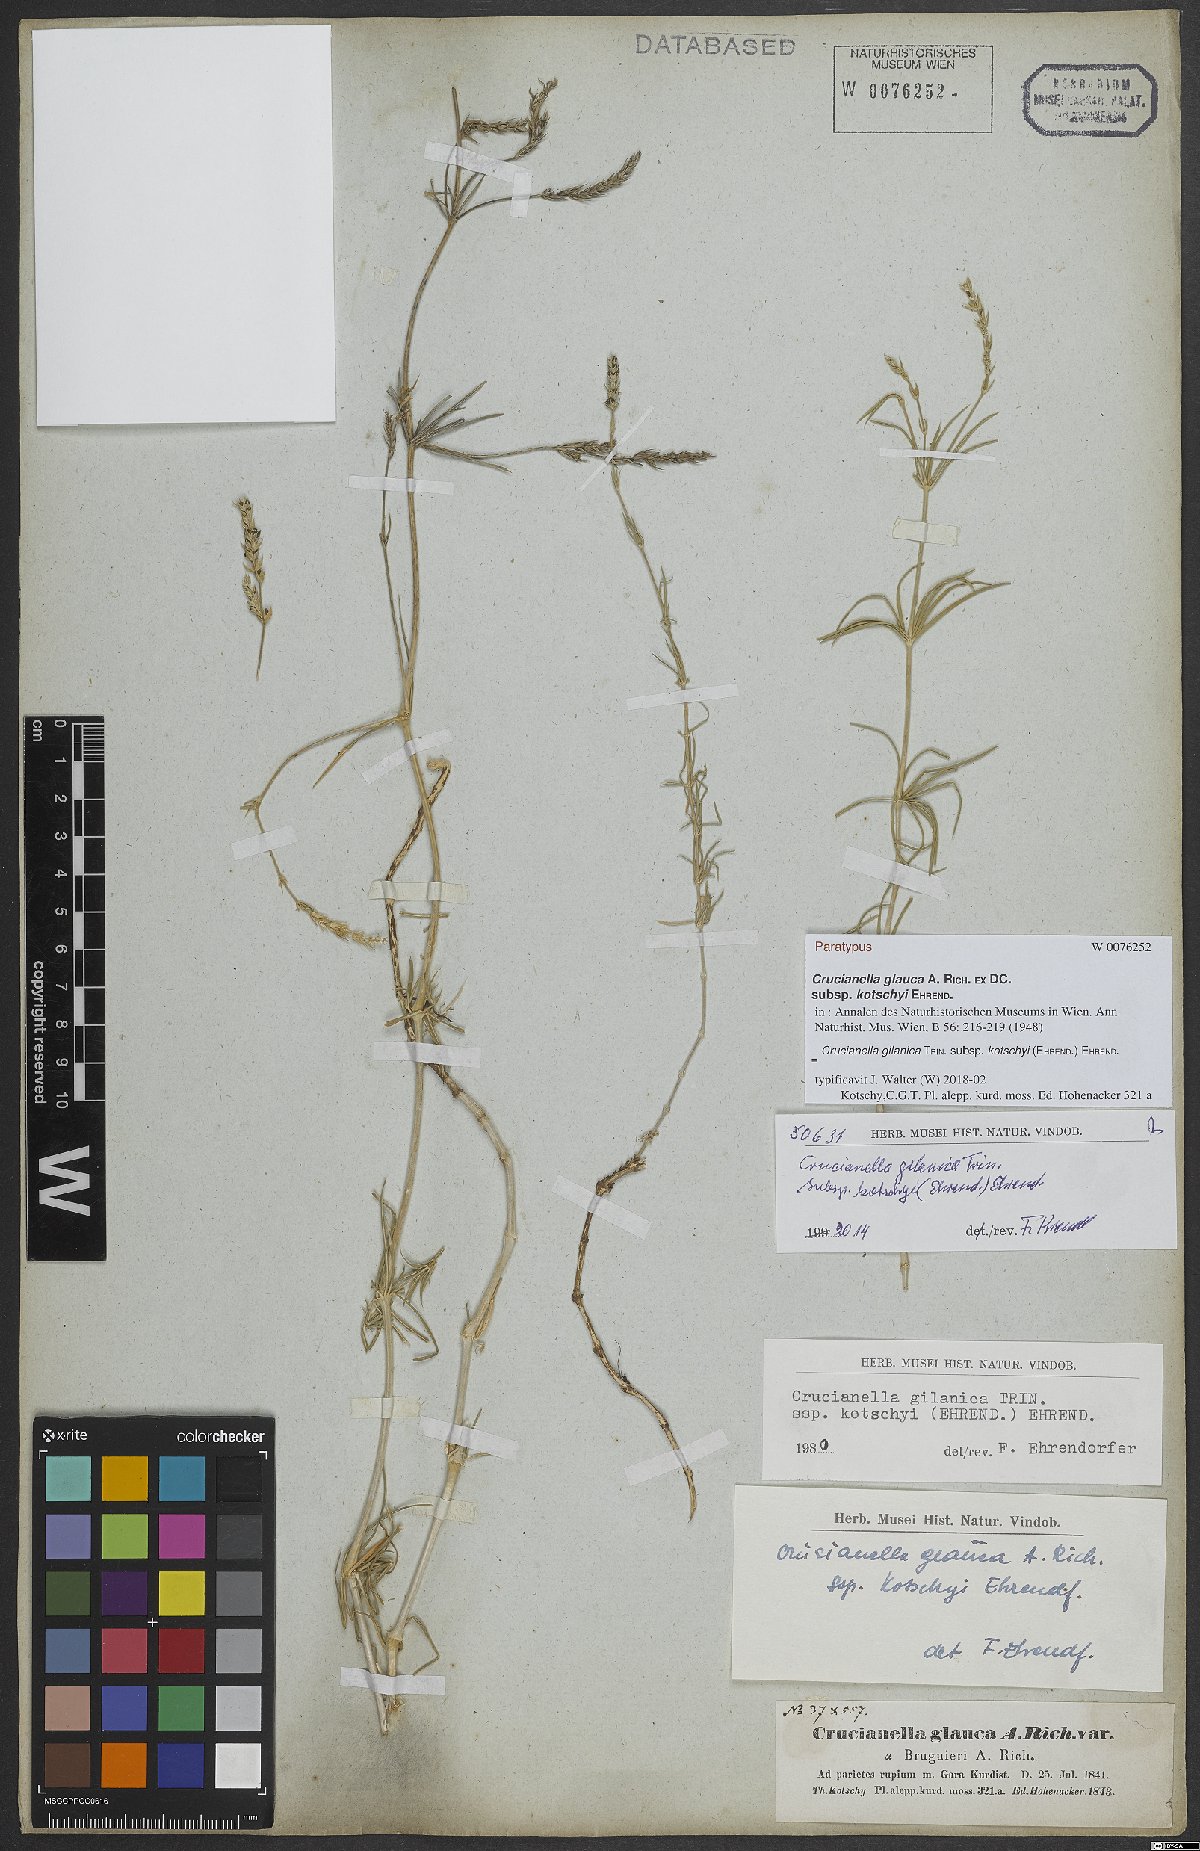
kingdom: Plantae
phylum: Tracheophyta
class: Magnoliopsida
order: Gentianales
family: Rubiaceae
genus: Crucianella
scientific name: Crucianella gilanica
